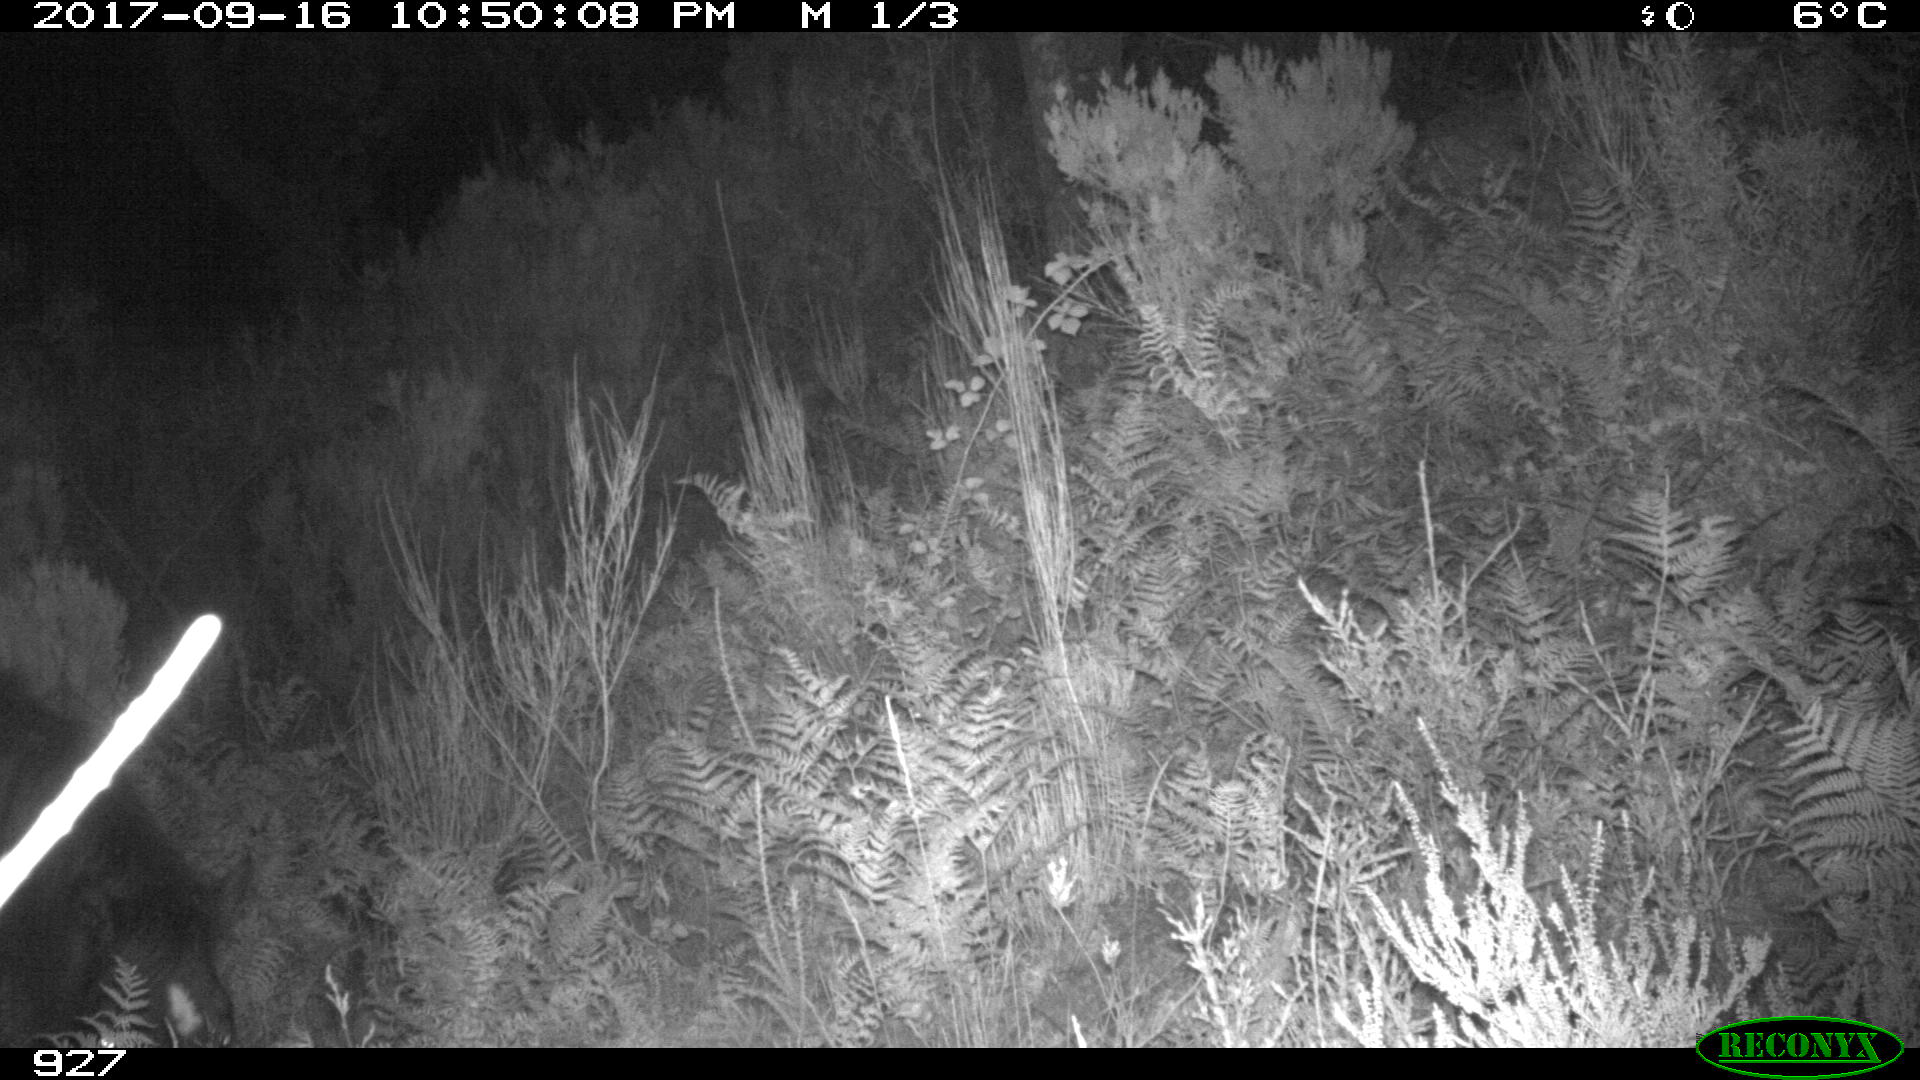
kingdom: Animalia
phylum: Chordata
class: Mammalia
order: Perissodactyla
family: Equidae
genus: Equus
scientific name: Equus caballus
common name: Horse
